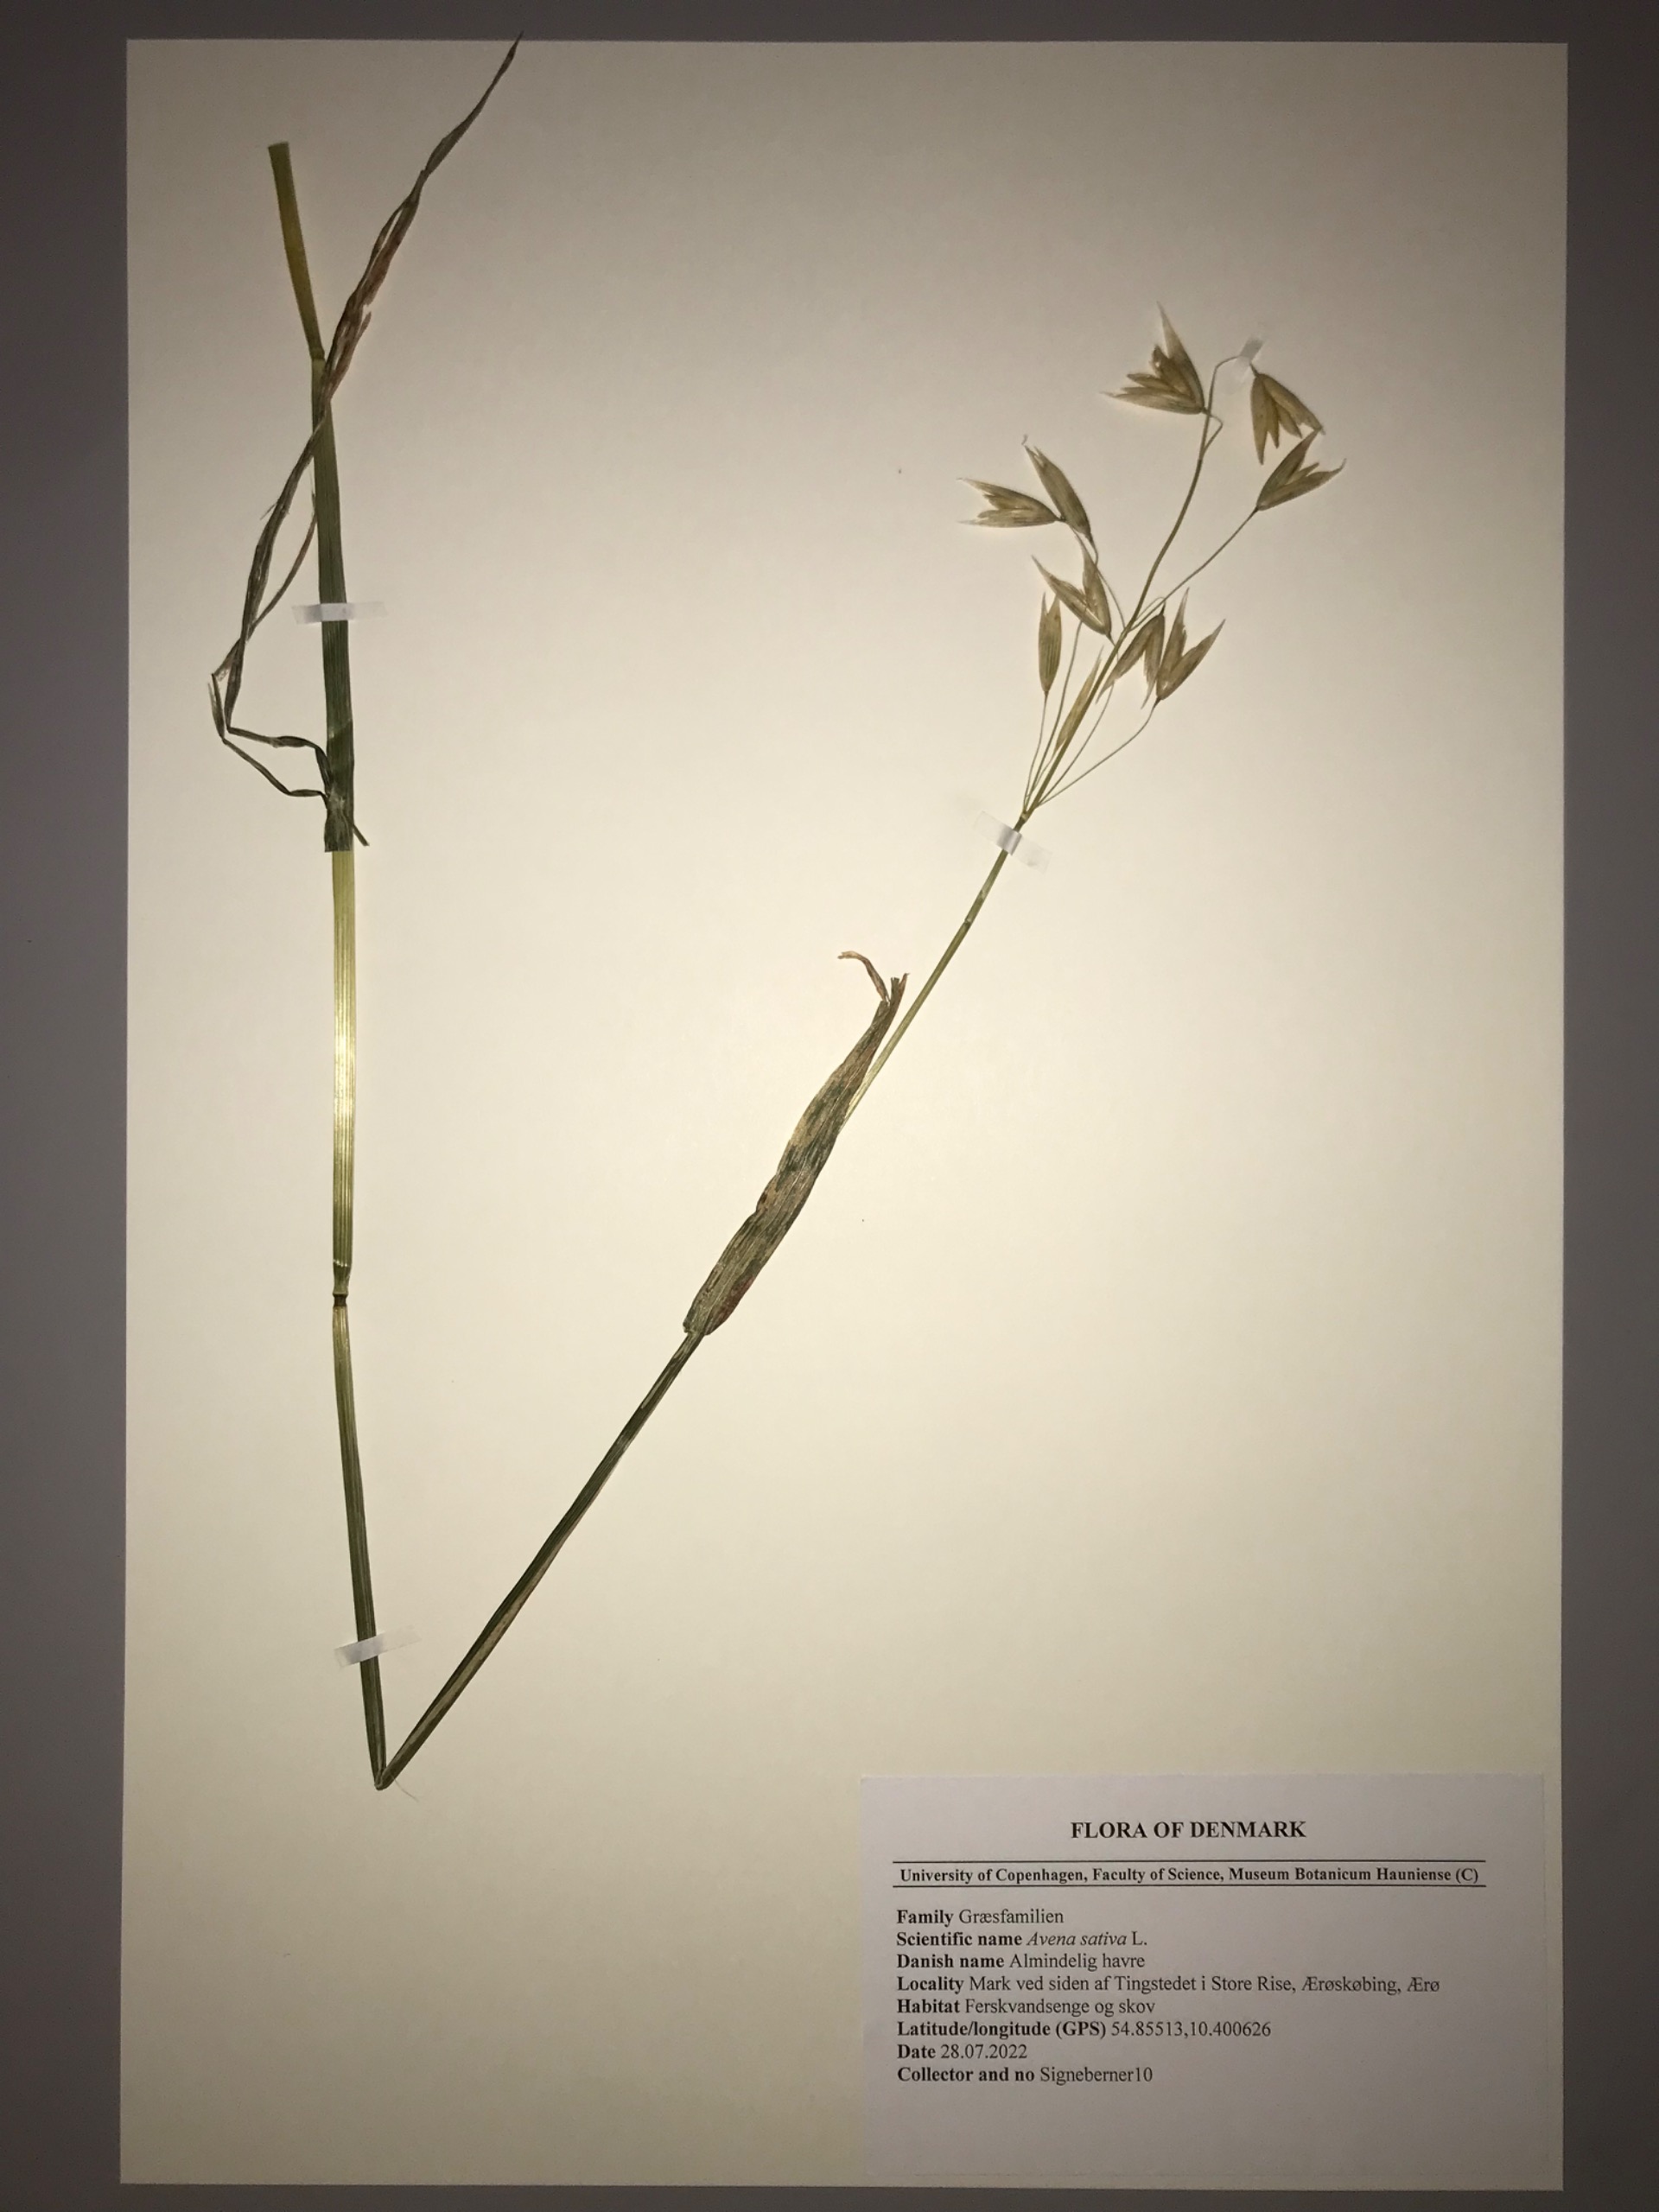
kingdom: Plantae
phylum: Tracheophyta
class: Liliopsida
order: Poales
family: Poaceae
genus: Avena
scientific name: Avena sativa
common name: Almindelig havre
